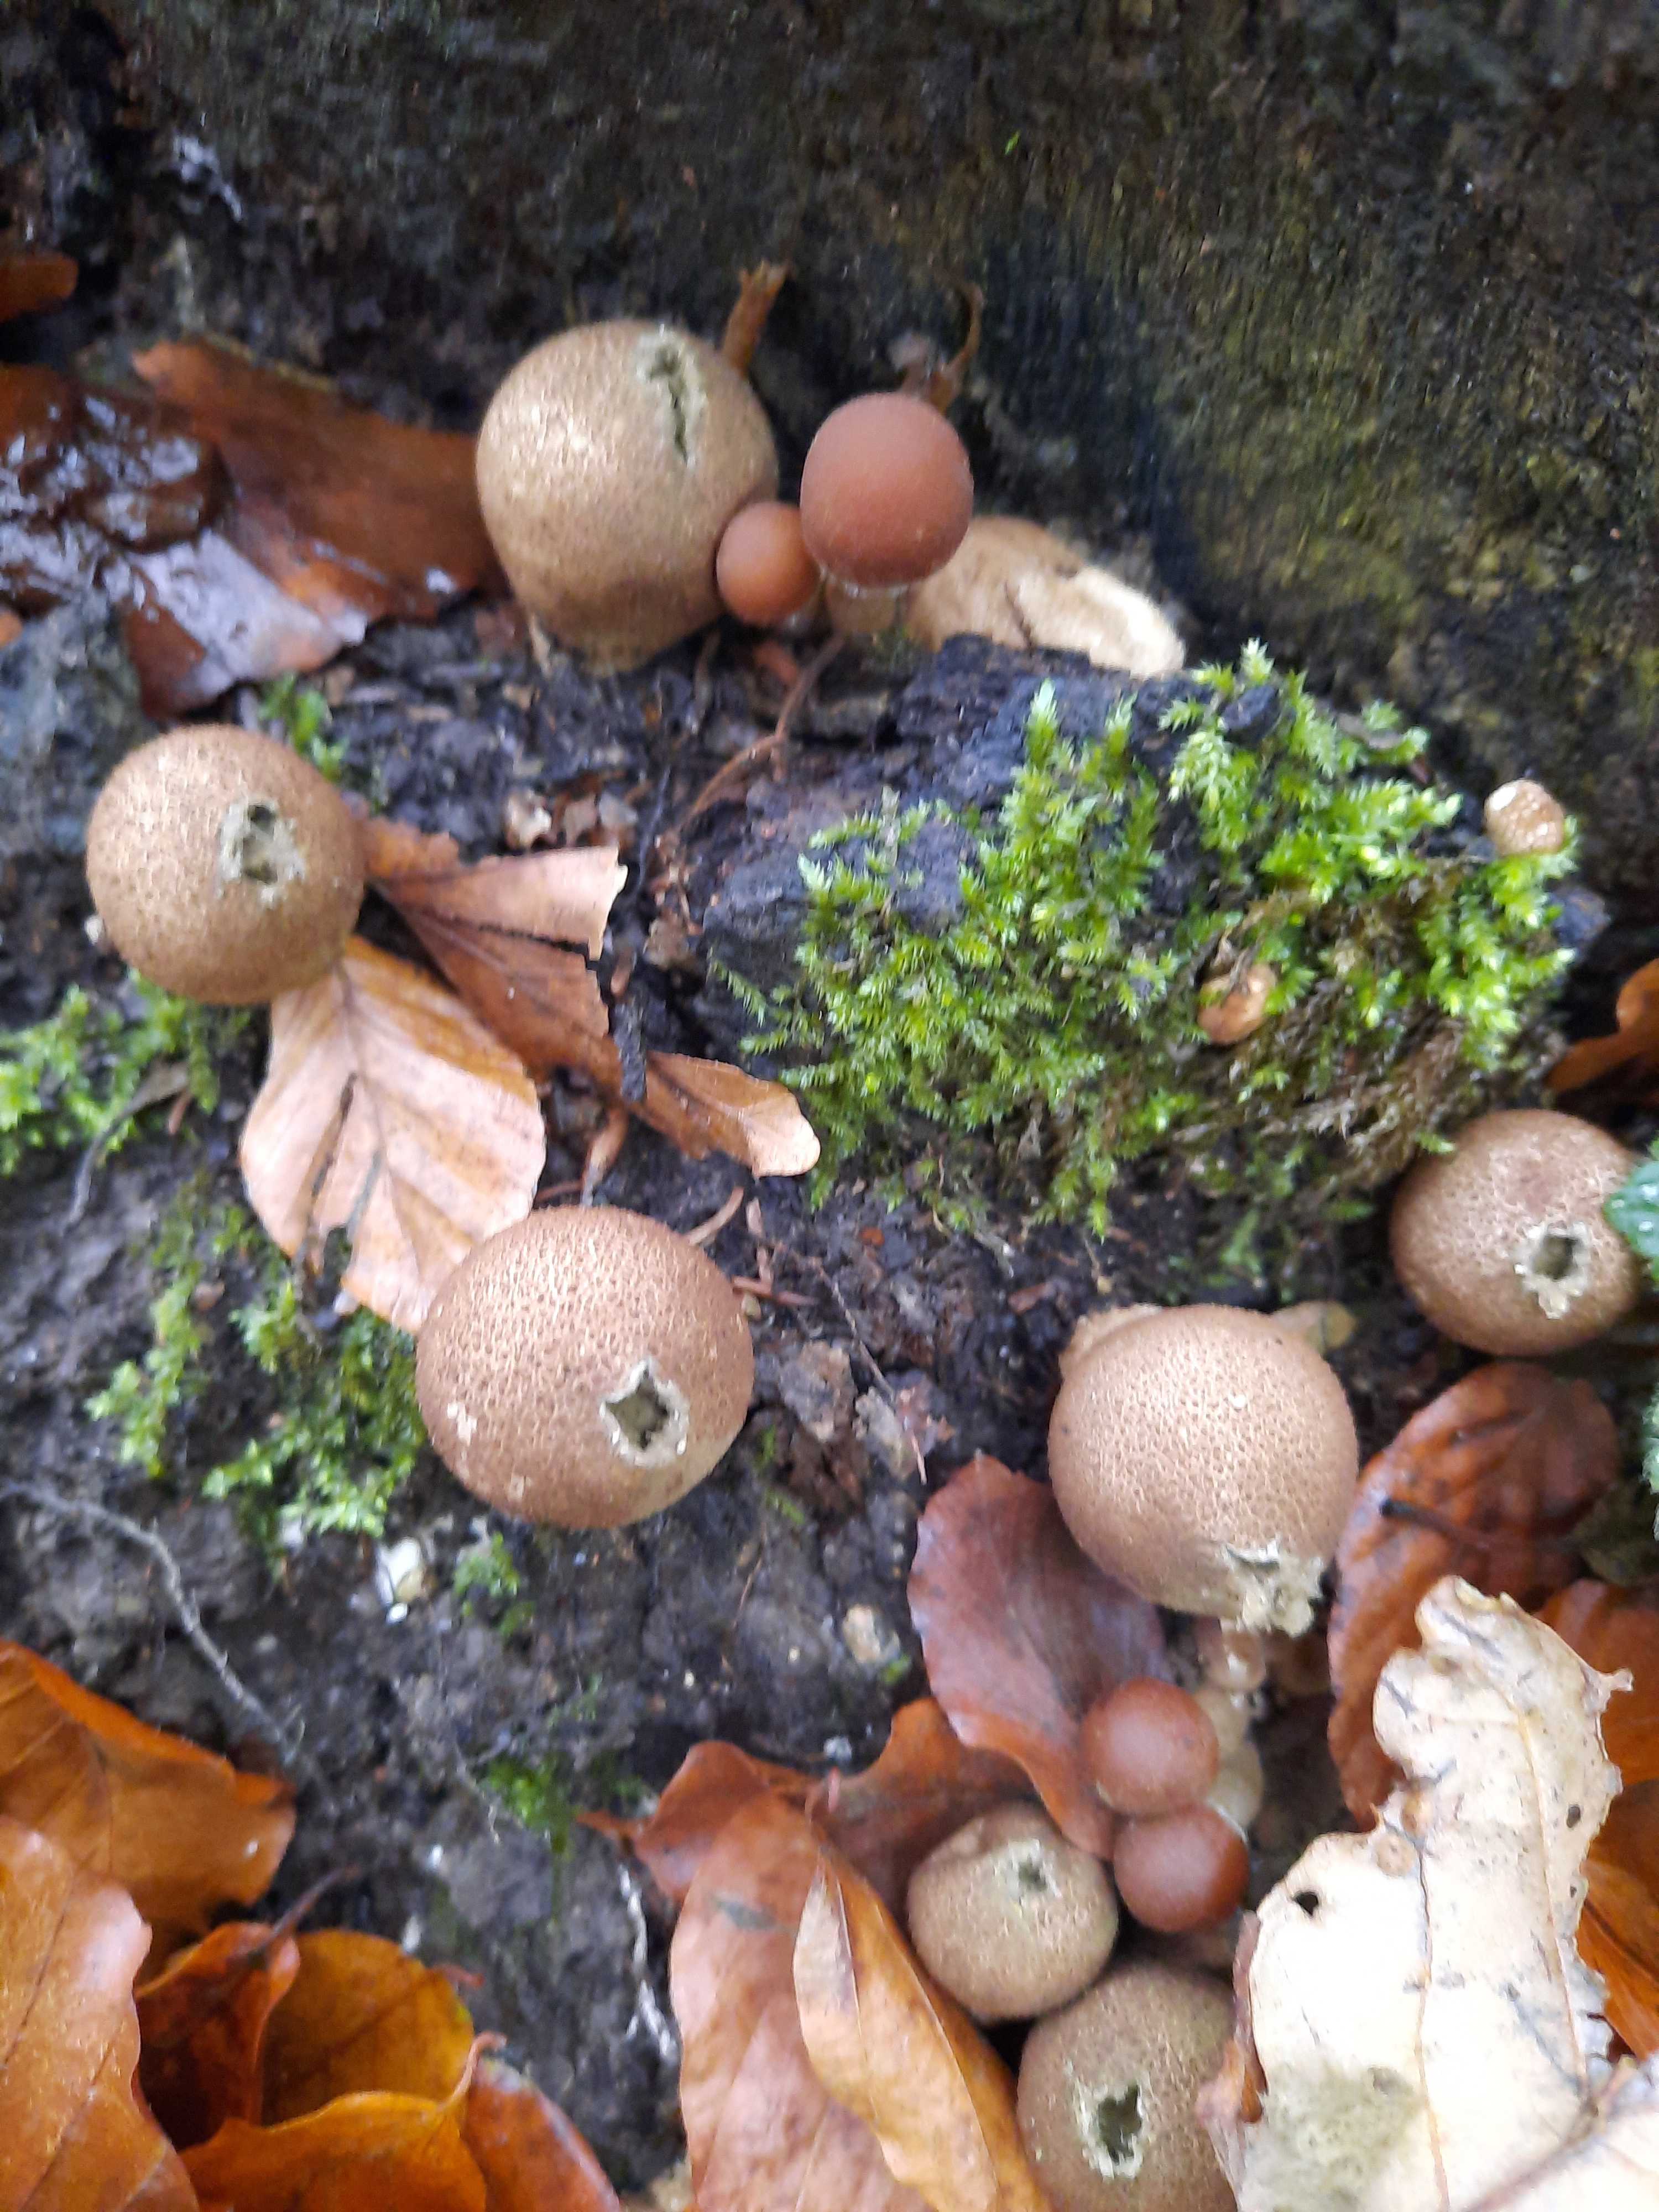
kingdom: Fungi
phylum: Basidiomycota
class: Agaricomycetes
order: Agaricales
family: Lycoperdaceae
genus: Apioperdon
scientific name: Apioperdon pyriforme
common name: pære-støvbold
